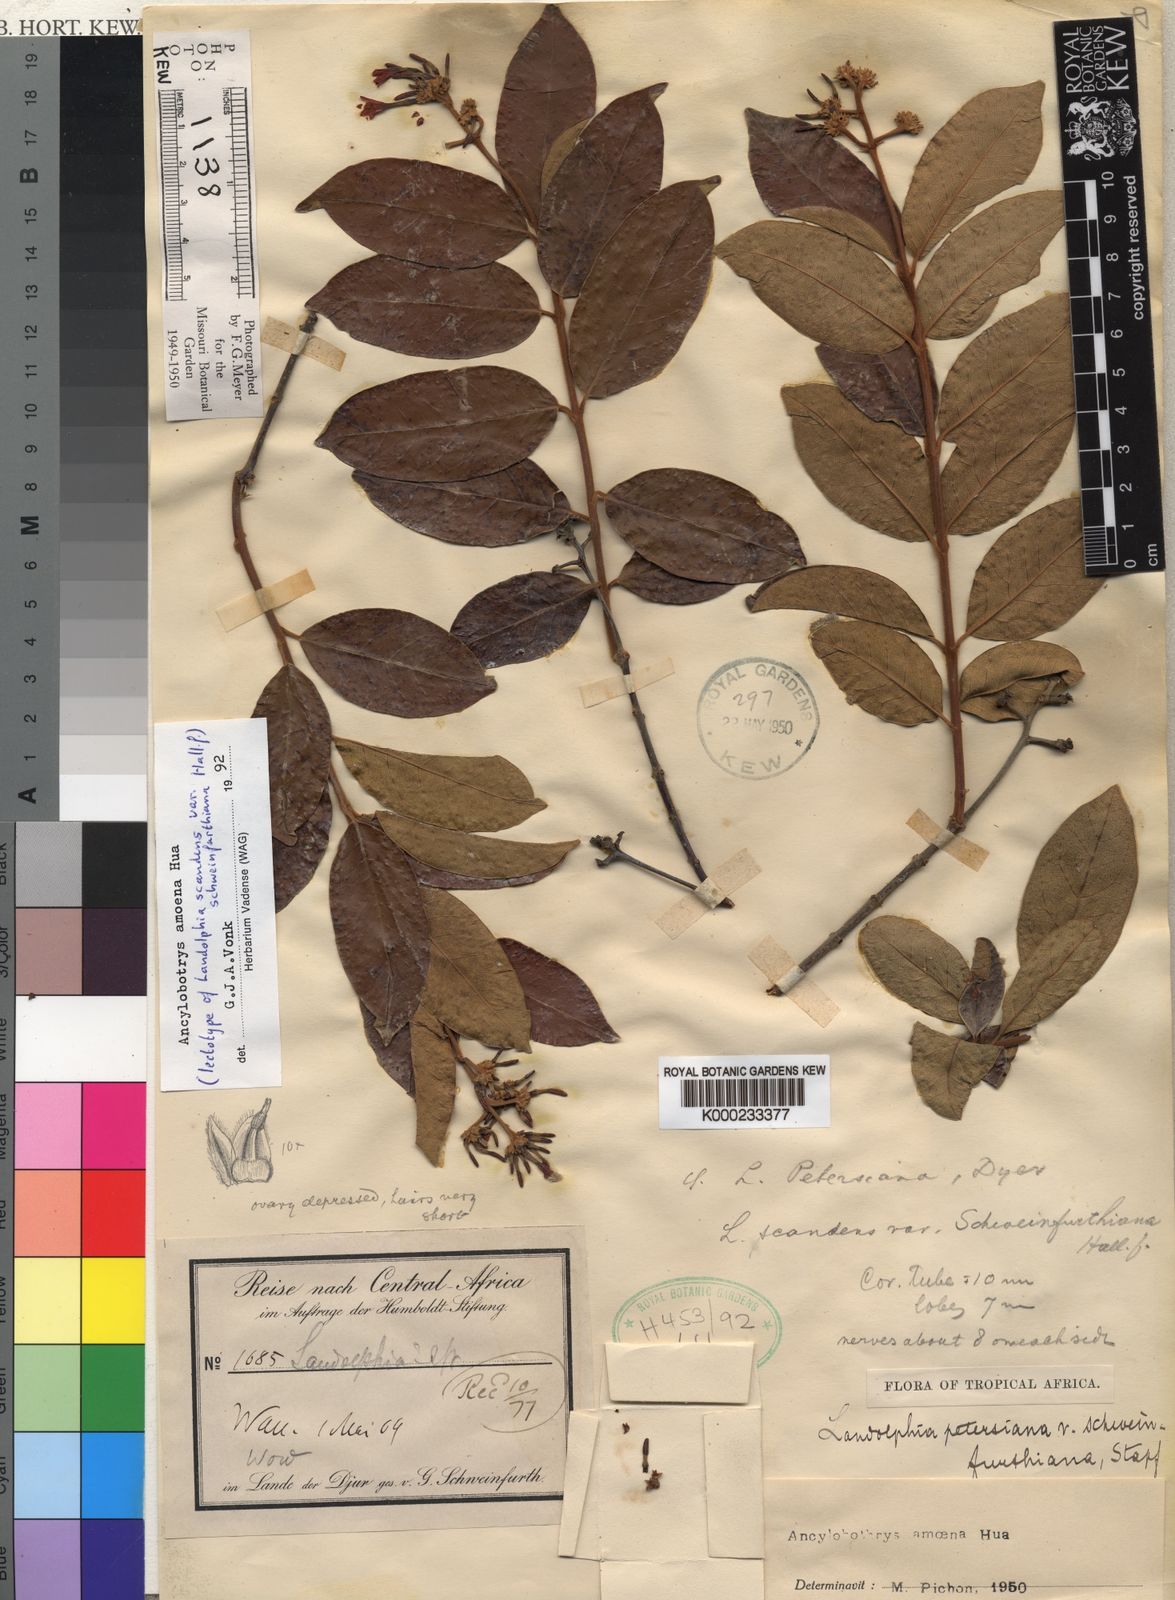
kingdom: Plantae
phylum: Tracheophyta
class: Magnoliopsida
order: Gentianales
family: Apocynaceae
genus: Ancylobothrys
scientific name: Ancylobothrys amoena
